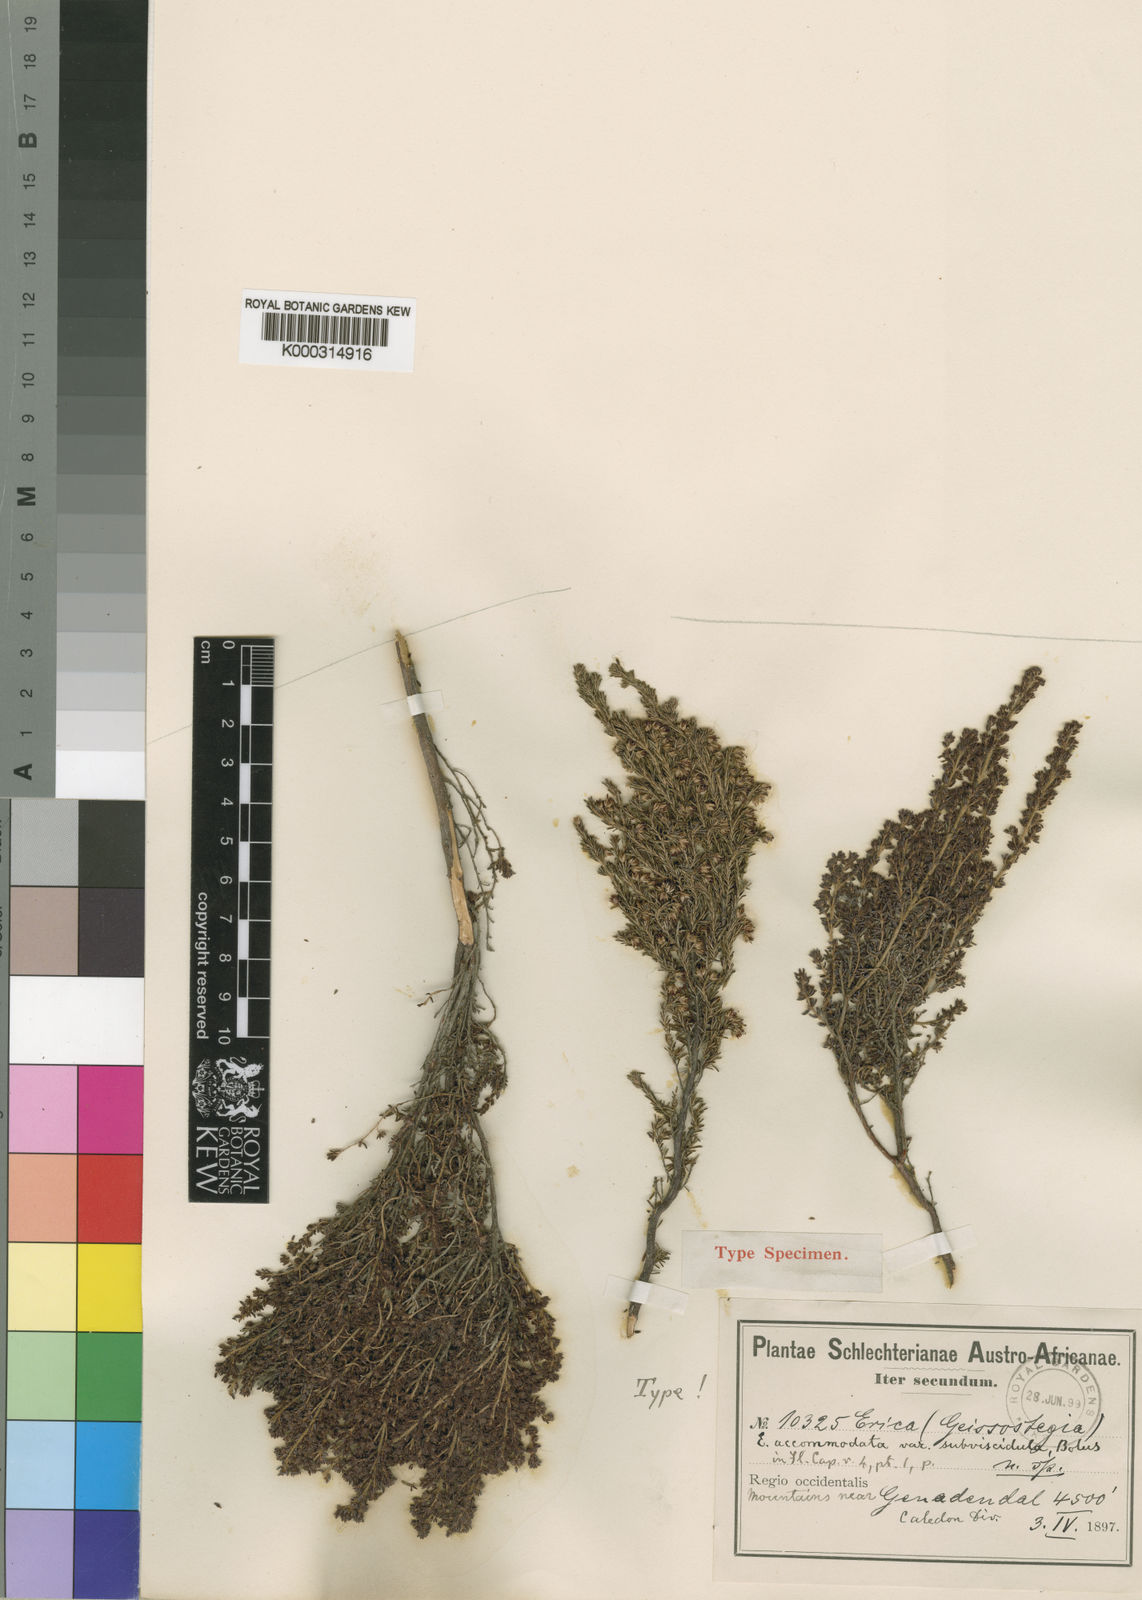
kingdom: Plantae
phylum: Tracheophyta
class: Magnoliopsida
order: Ericales
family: Ericaceae
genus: Erica
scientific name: Erica
